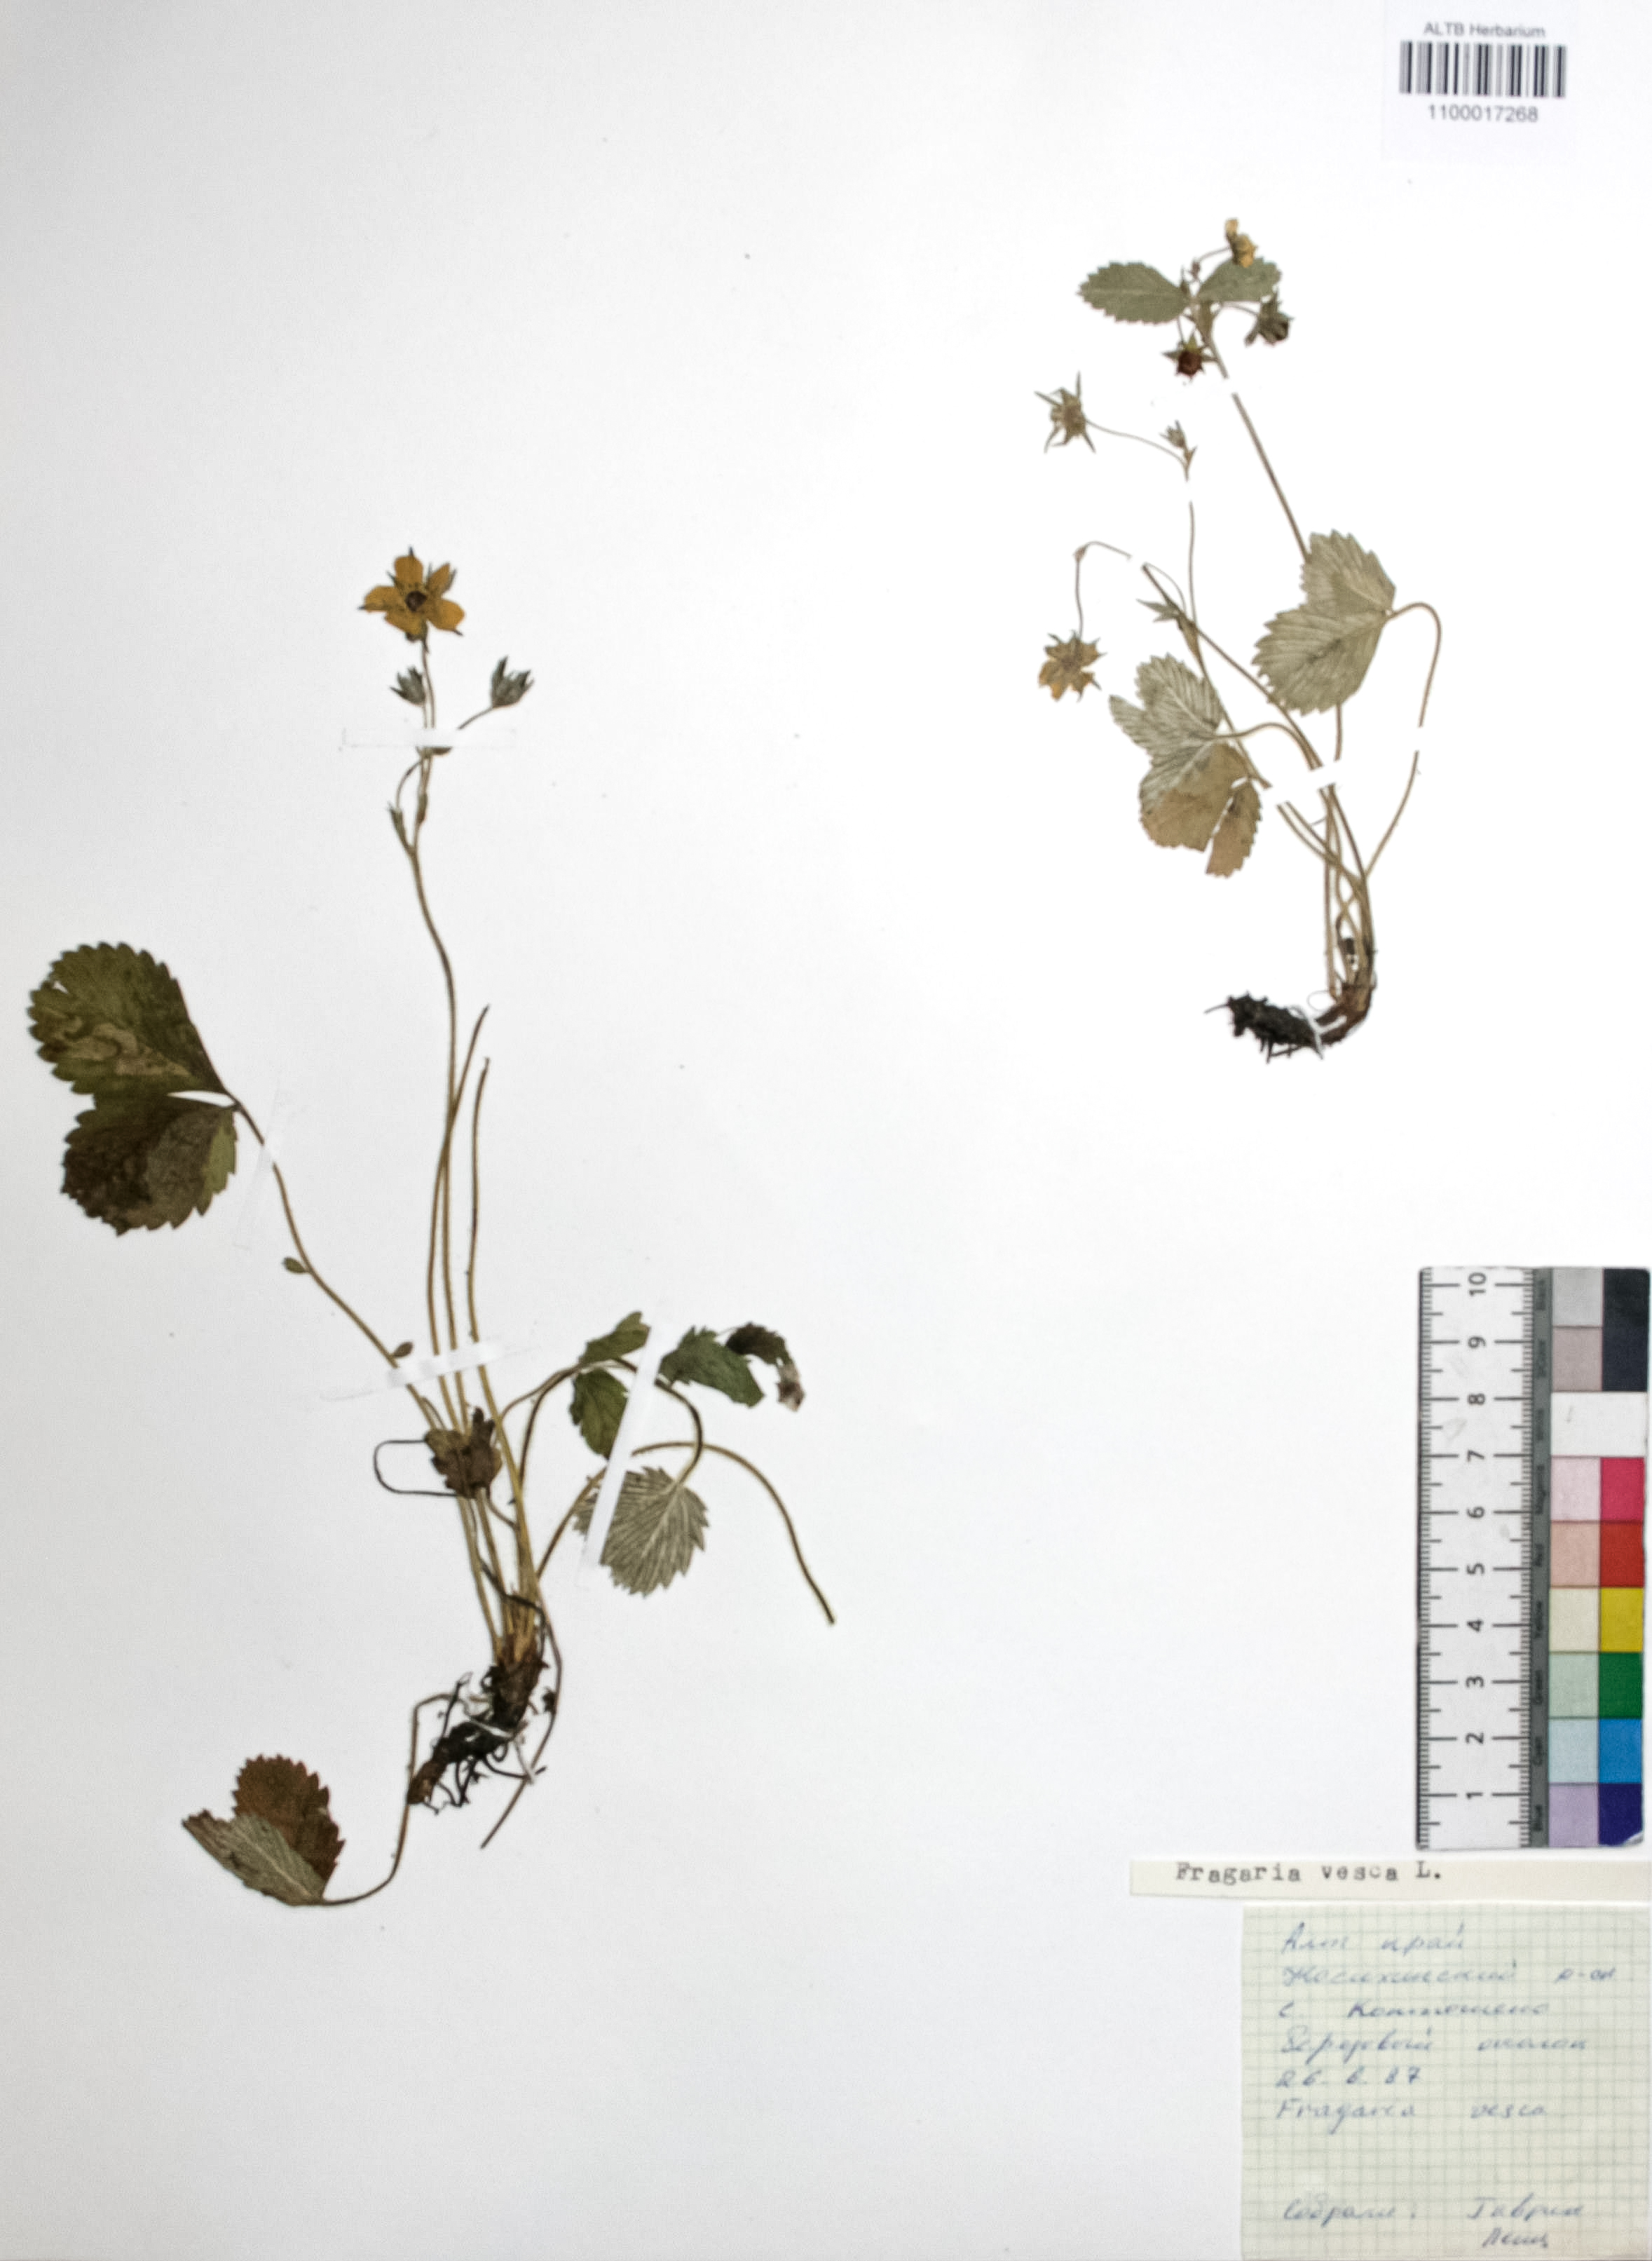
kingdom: Plantae
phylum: Tracheophyta
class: Magnoliopsida
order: Rosales
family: Rosaceae
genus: Fragaria
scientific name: Fragaria vesca
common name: Wild strawberry
